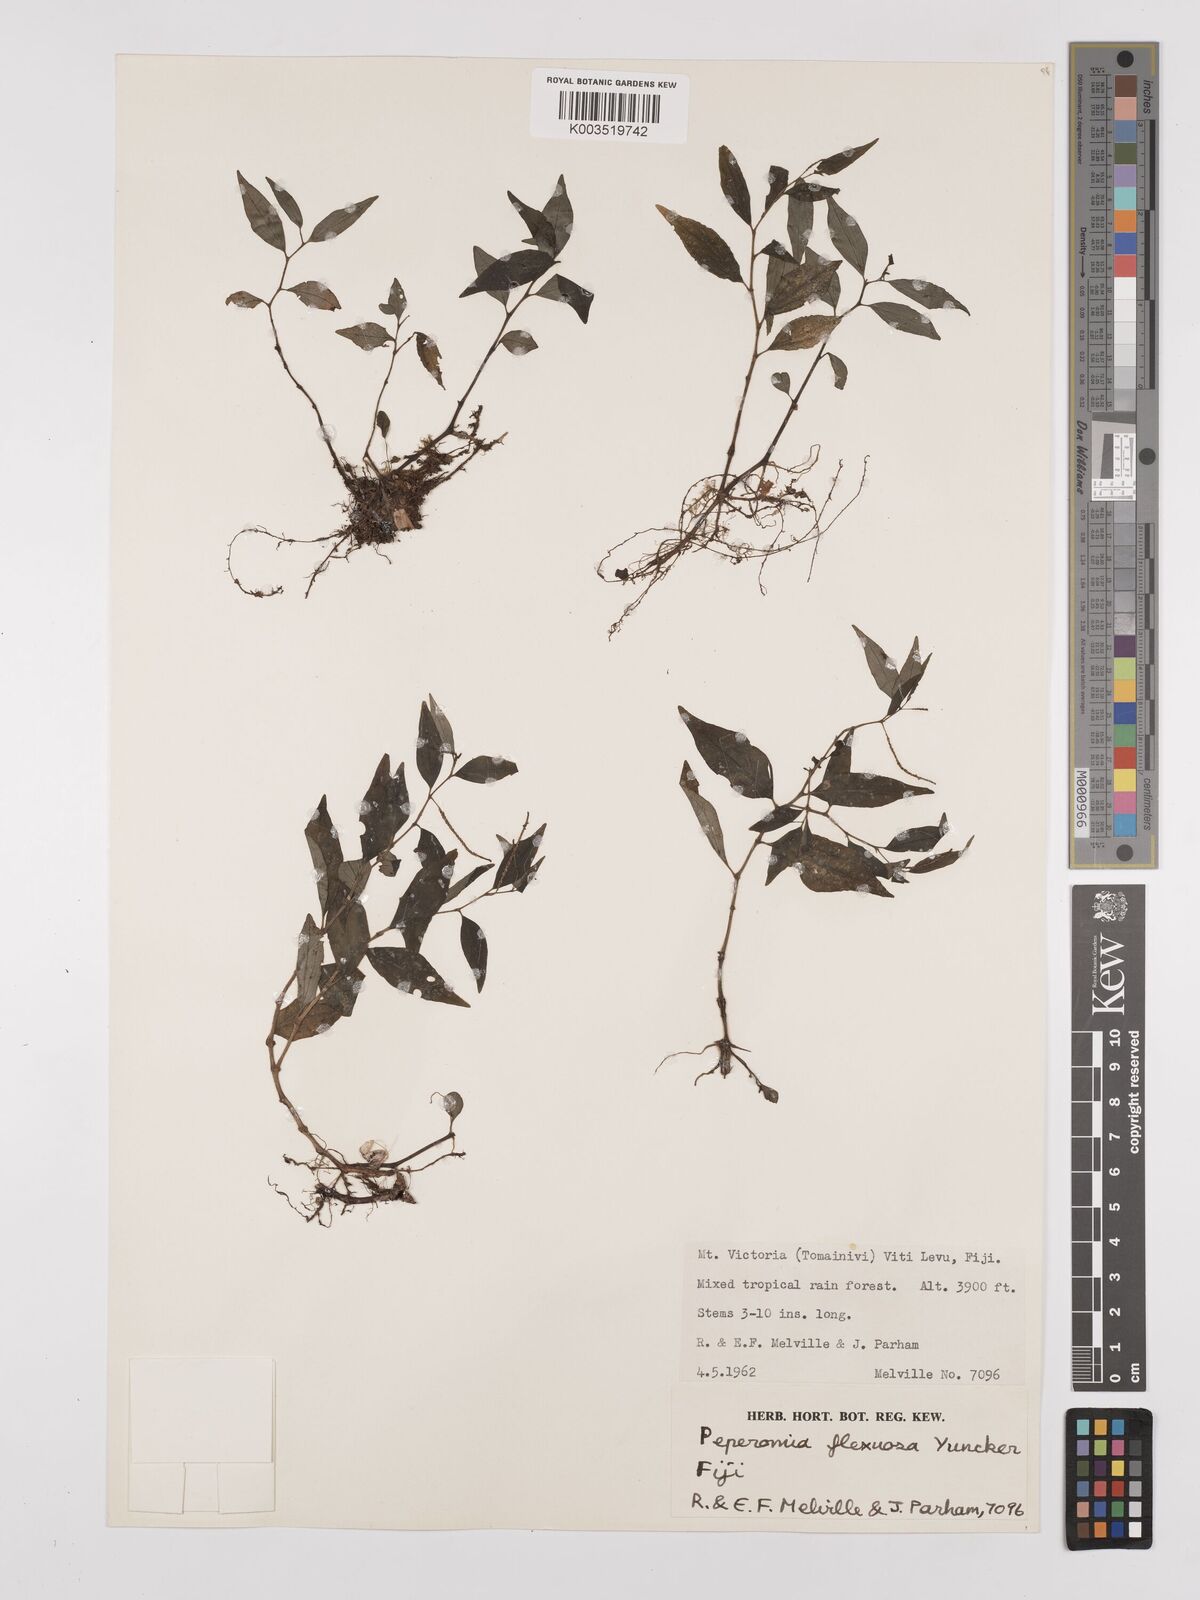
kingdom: Plantae
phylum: Tracheophyta
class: Magnoliopsida
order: Piperales
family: Piperaceae
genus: Peperomia
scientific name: Peperomia subroseispica
